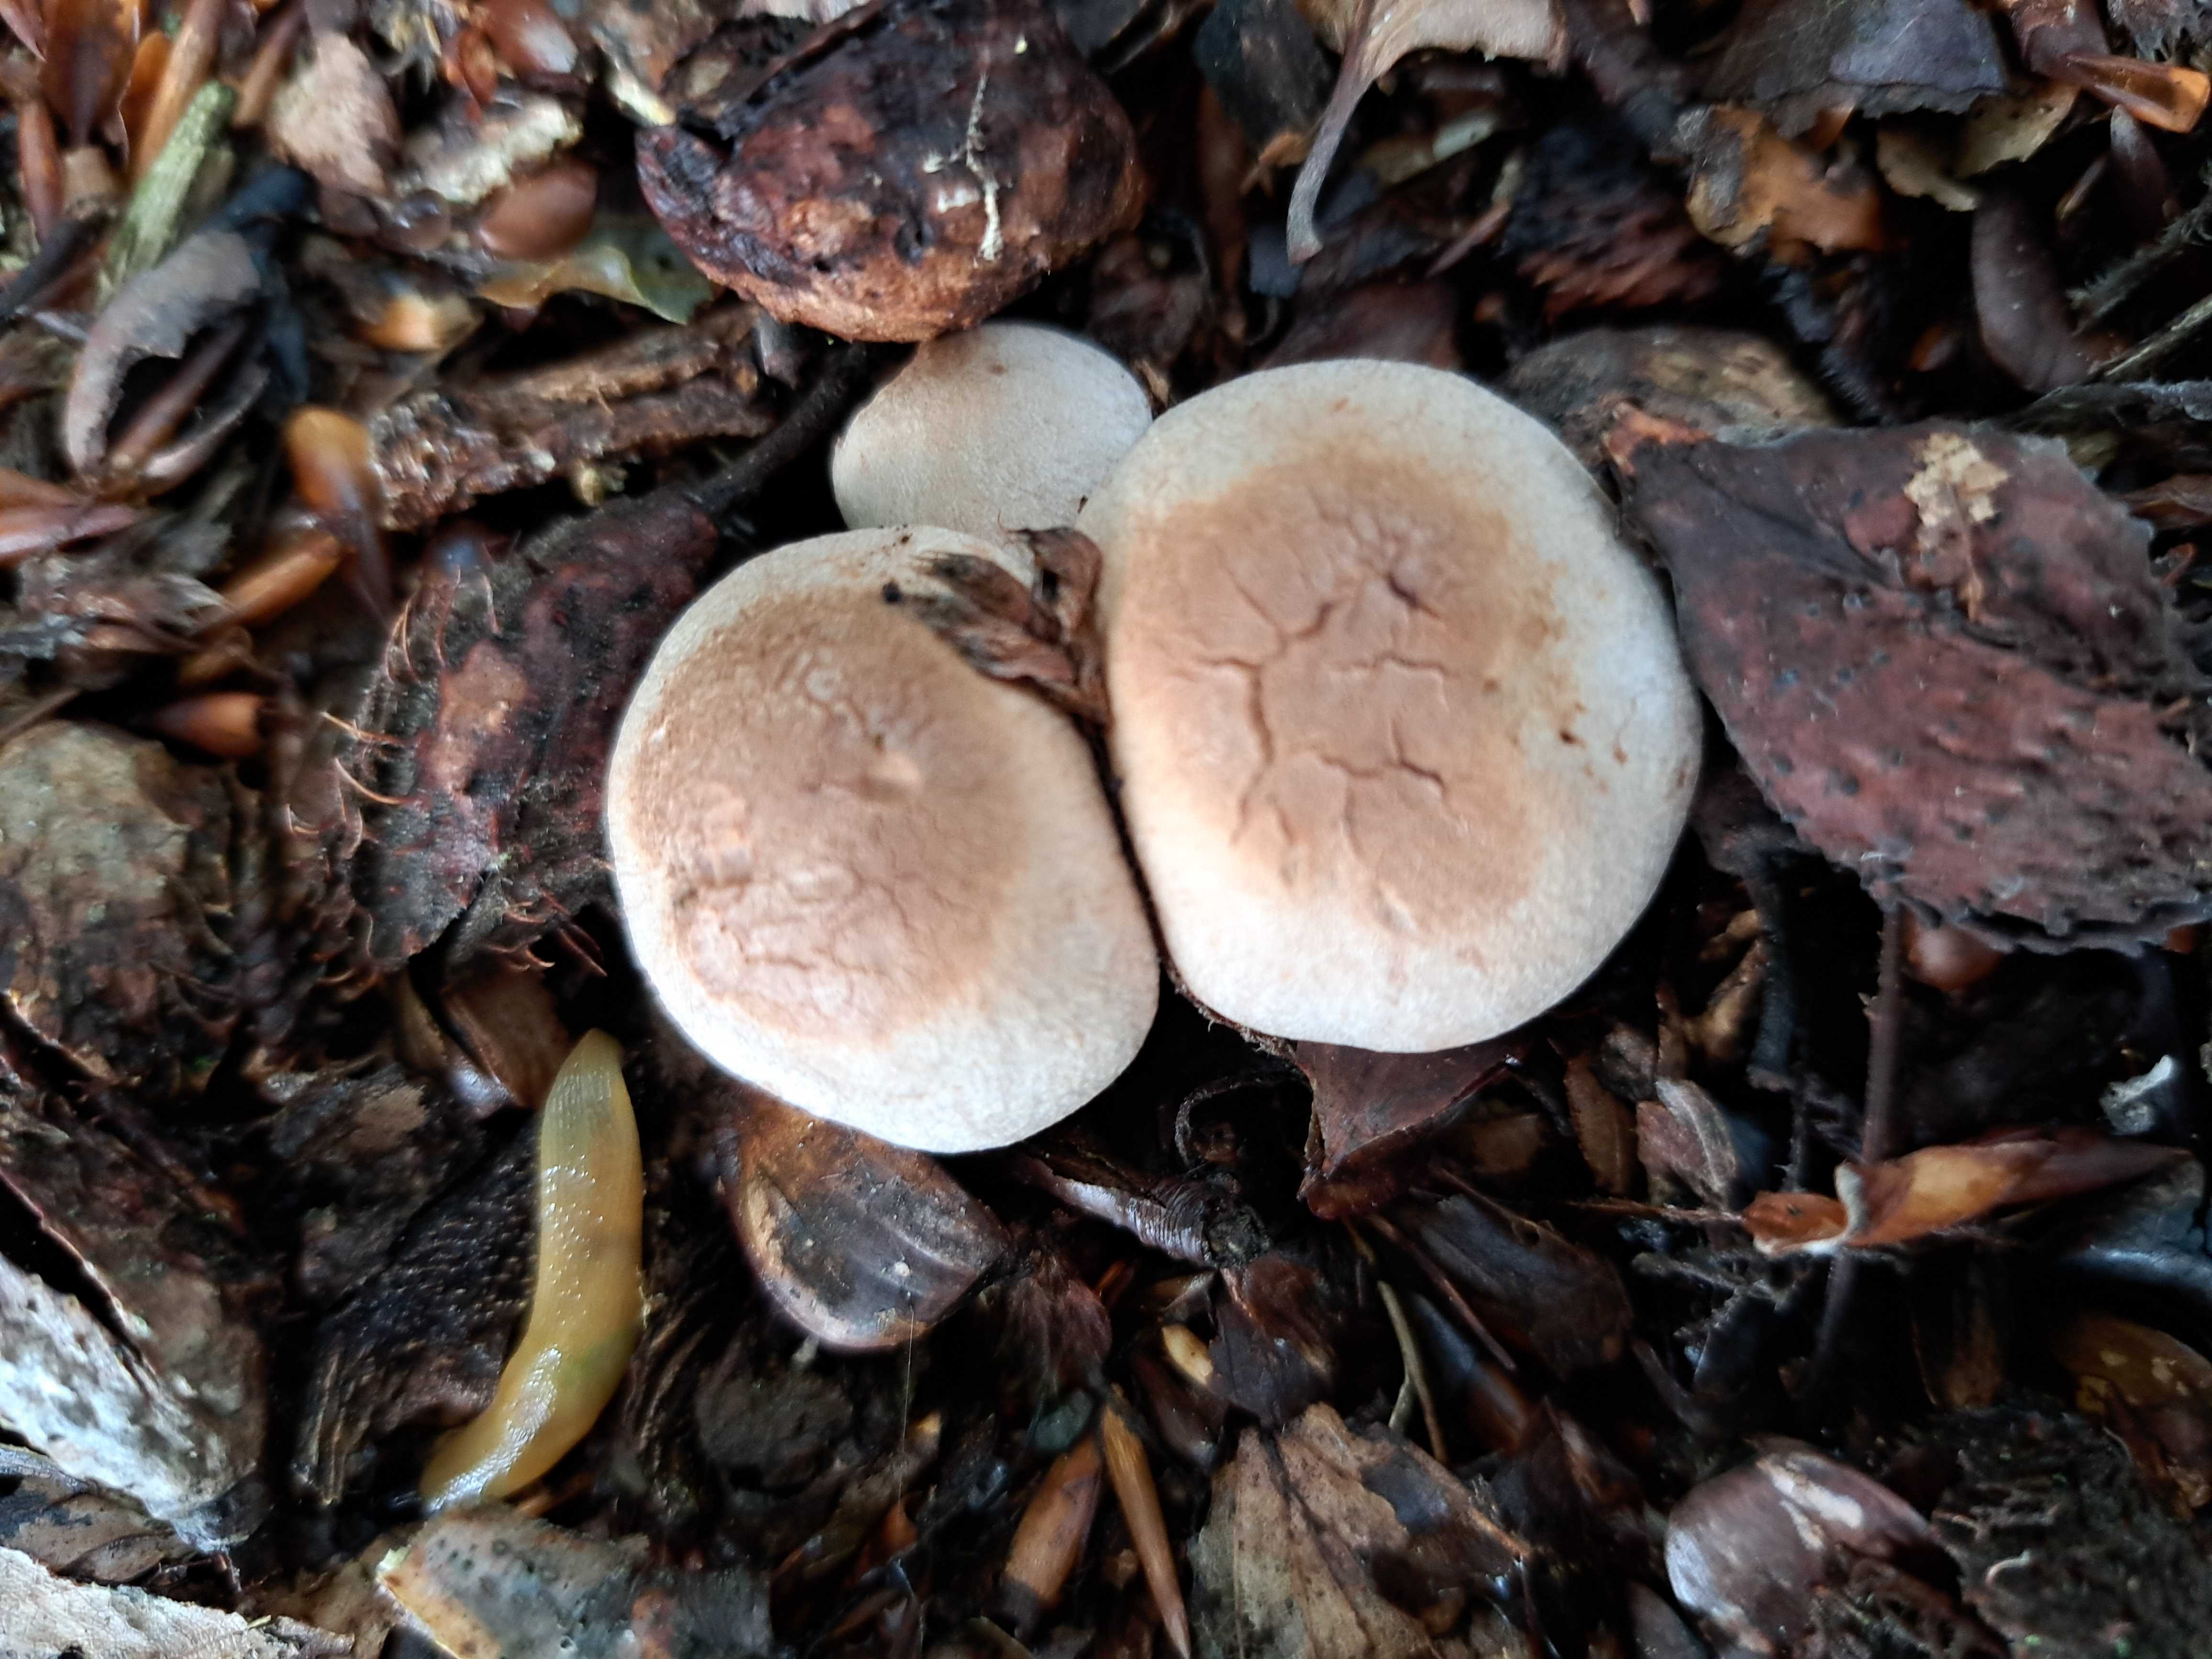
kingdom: Fungi
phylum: Basidiomycota
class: Agaricomycetes
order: Agaricales
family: Cortinariaceae
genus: Cortinarius
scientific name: Cortinarius torvus
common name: champignonagtig slørhat
